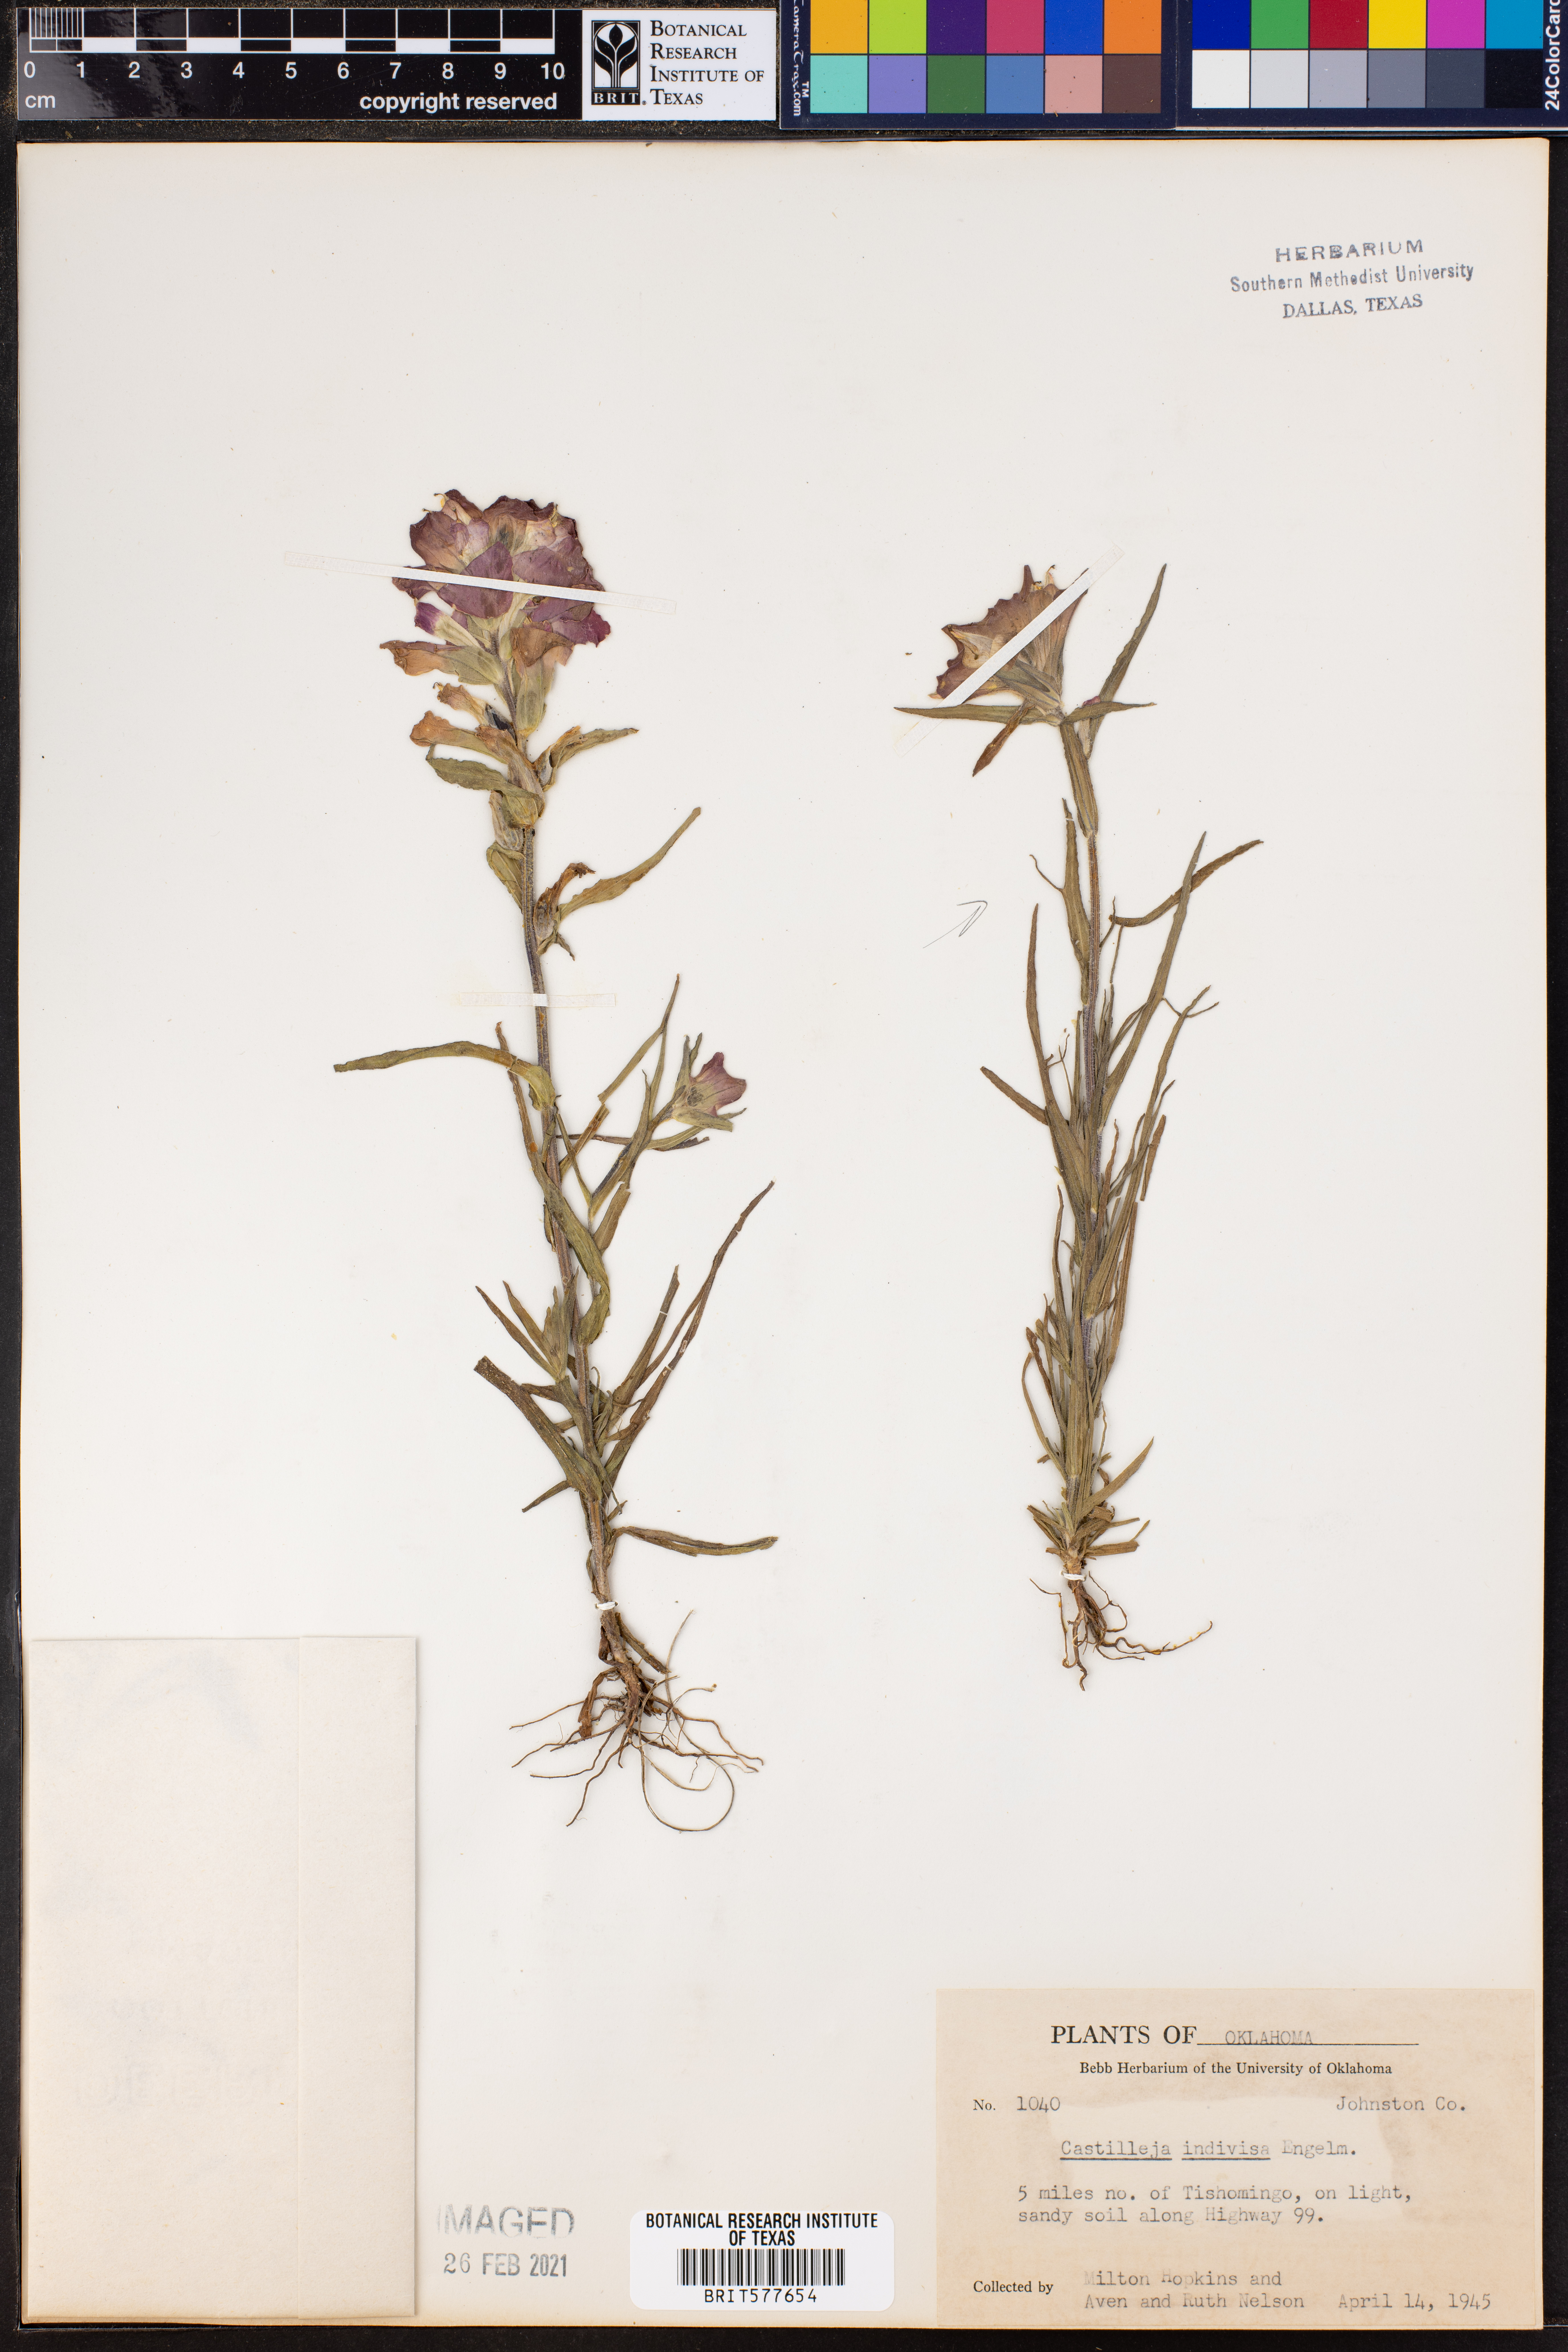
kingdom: Plantae
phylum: Tracheophyta
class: Magnoliopsida
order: Lamiales
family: Orobanchaceae
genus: Castilleja
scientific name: Castilleja indivisa
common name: Texas paintbrush
